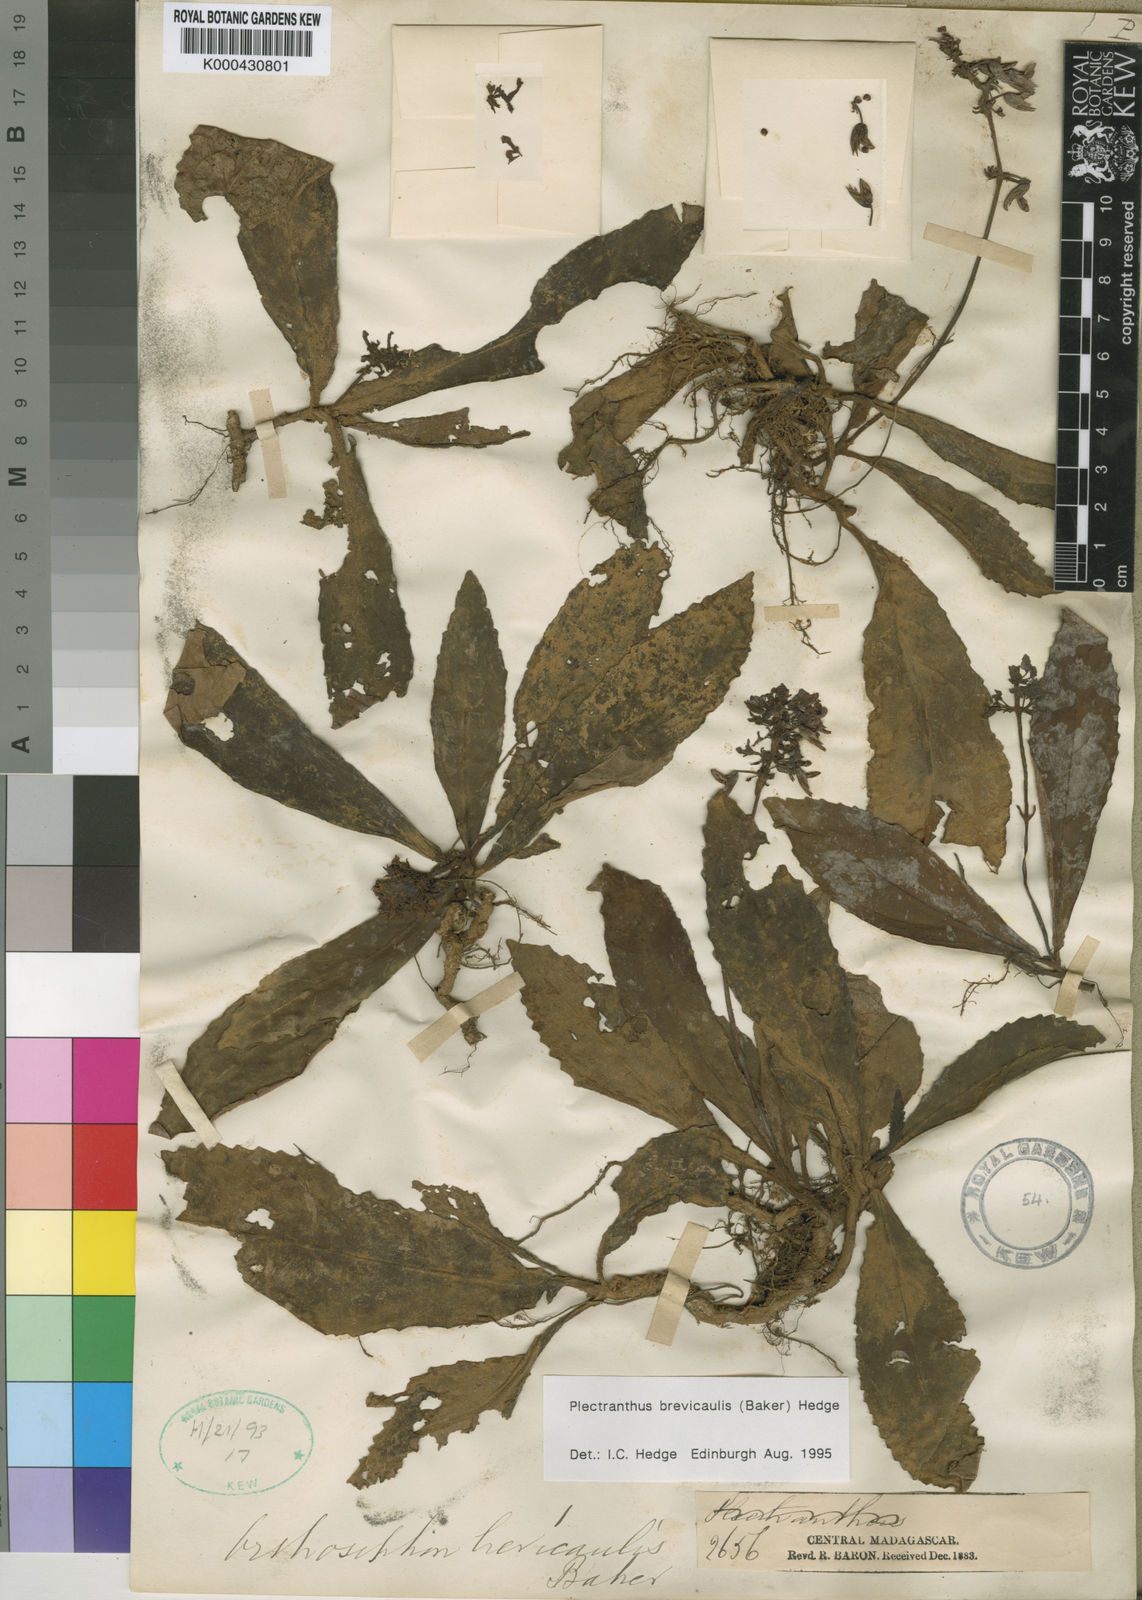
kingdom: Plantae
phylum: Tracheophyta
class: Magnoliopsida
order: Lamiales
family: Lamiaceae
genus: Plectranthus
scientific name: Plectranthus brevicaulis
